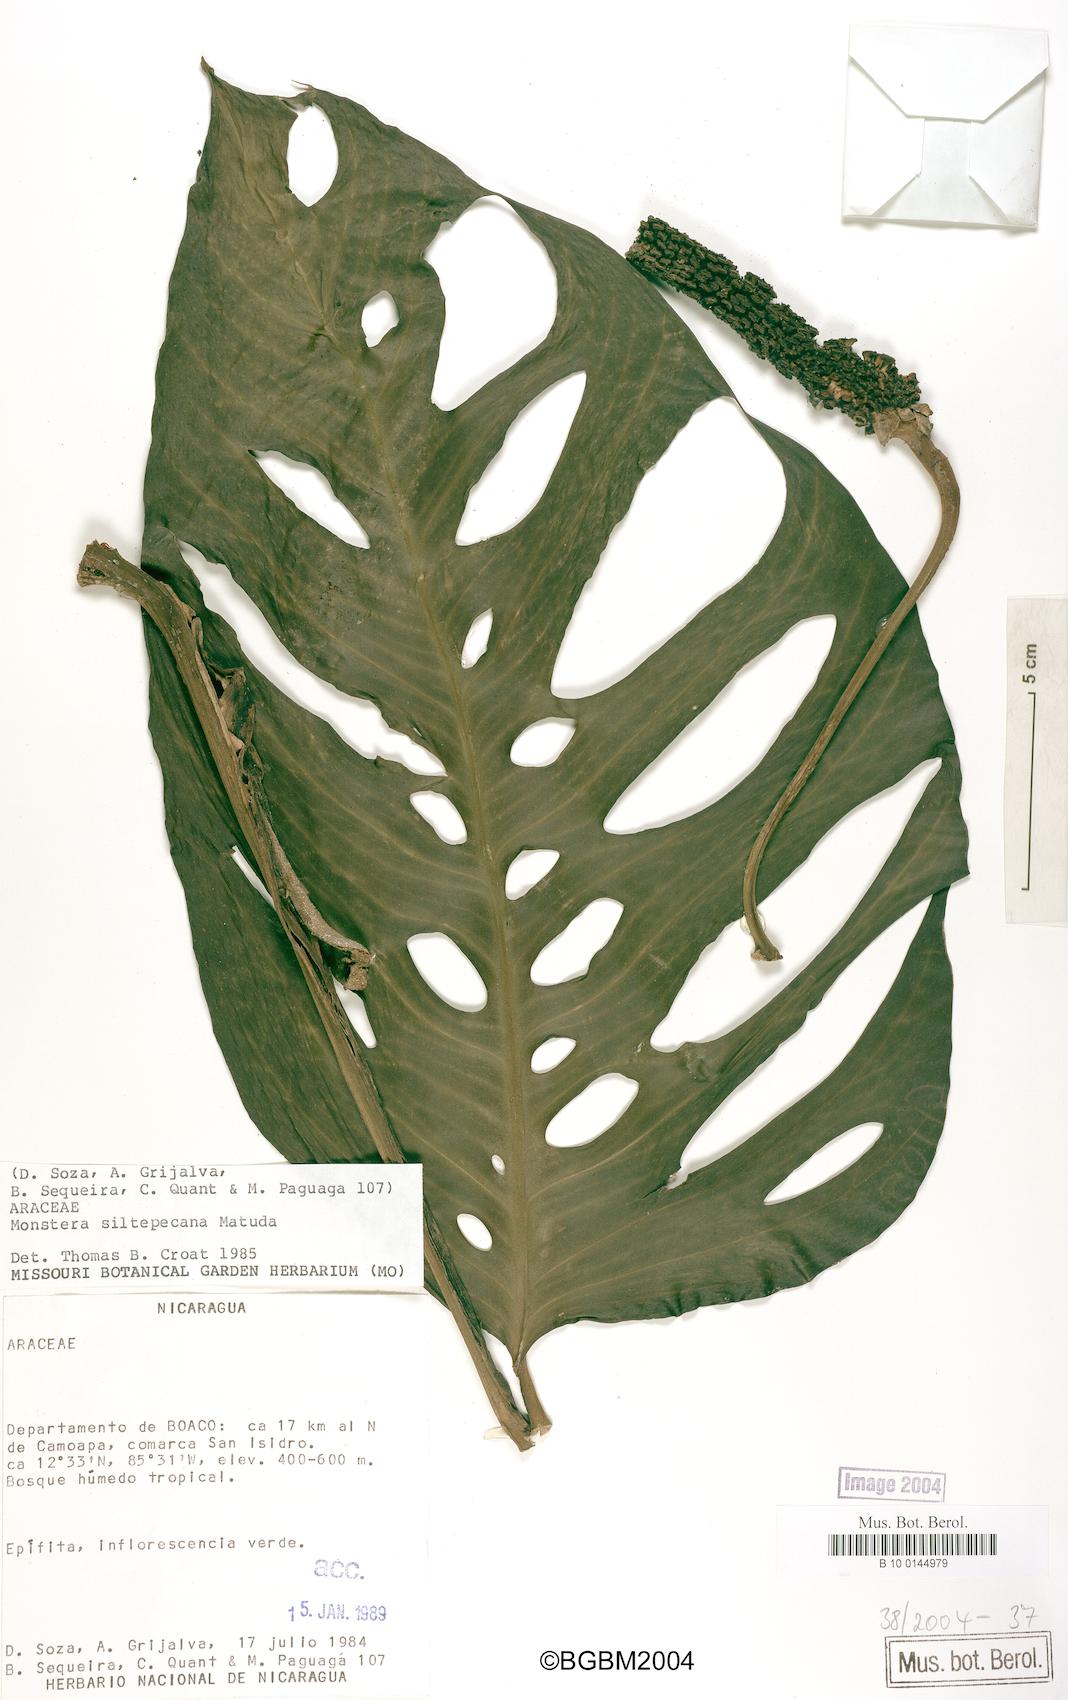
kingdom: Plantae
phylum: Tracheophyta
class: Liliopsida
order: Alismatales
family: Araceae
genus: Monstera
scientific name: Monstera siltepecana
